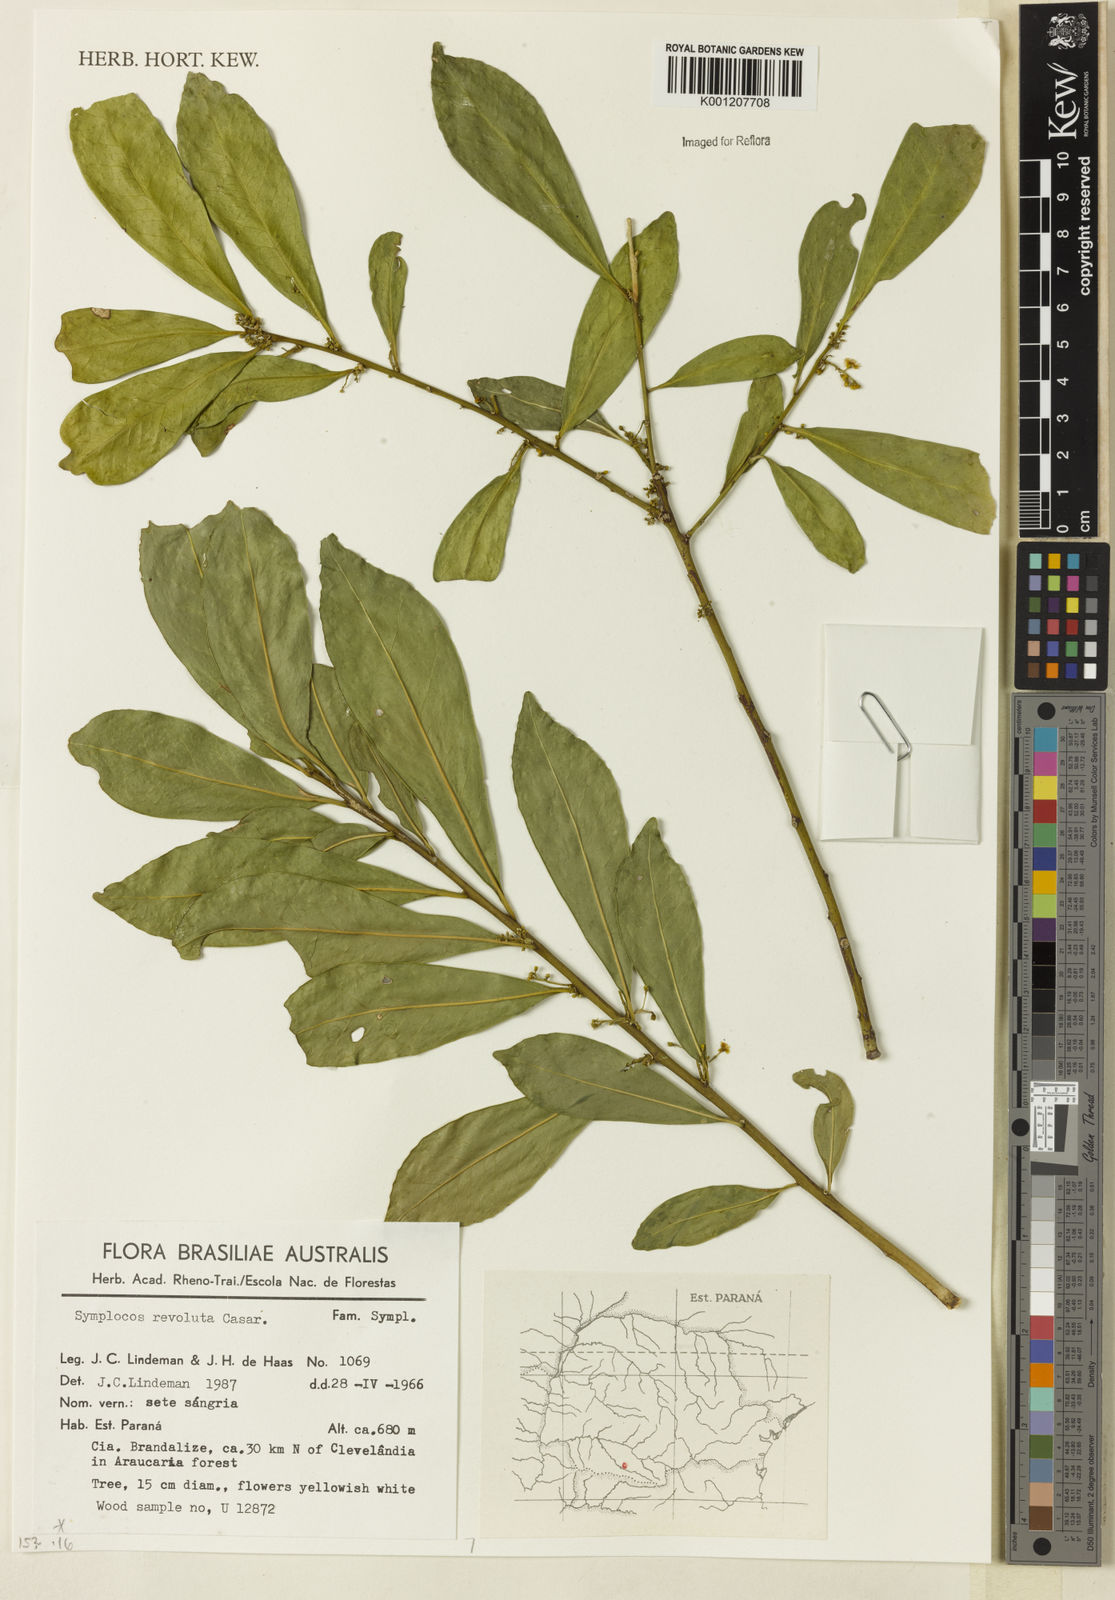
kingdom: Plantae
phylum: Tracheophyta
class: Magnoliopsida
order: Ericales
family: Symplocaceae
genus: Symplocos
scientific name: Symplocos revoluta
